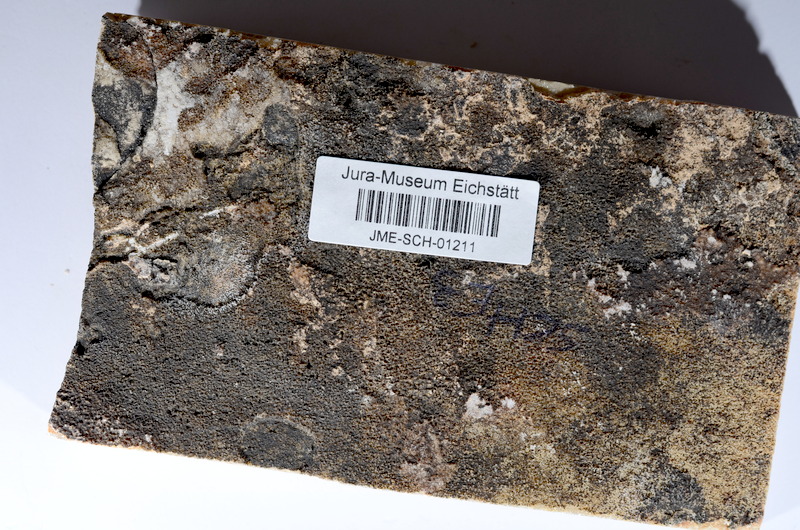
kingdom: Animalia
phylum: Chordata
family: Ascalaboidae
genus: Tharsis
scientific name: Tharsis dubius
